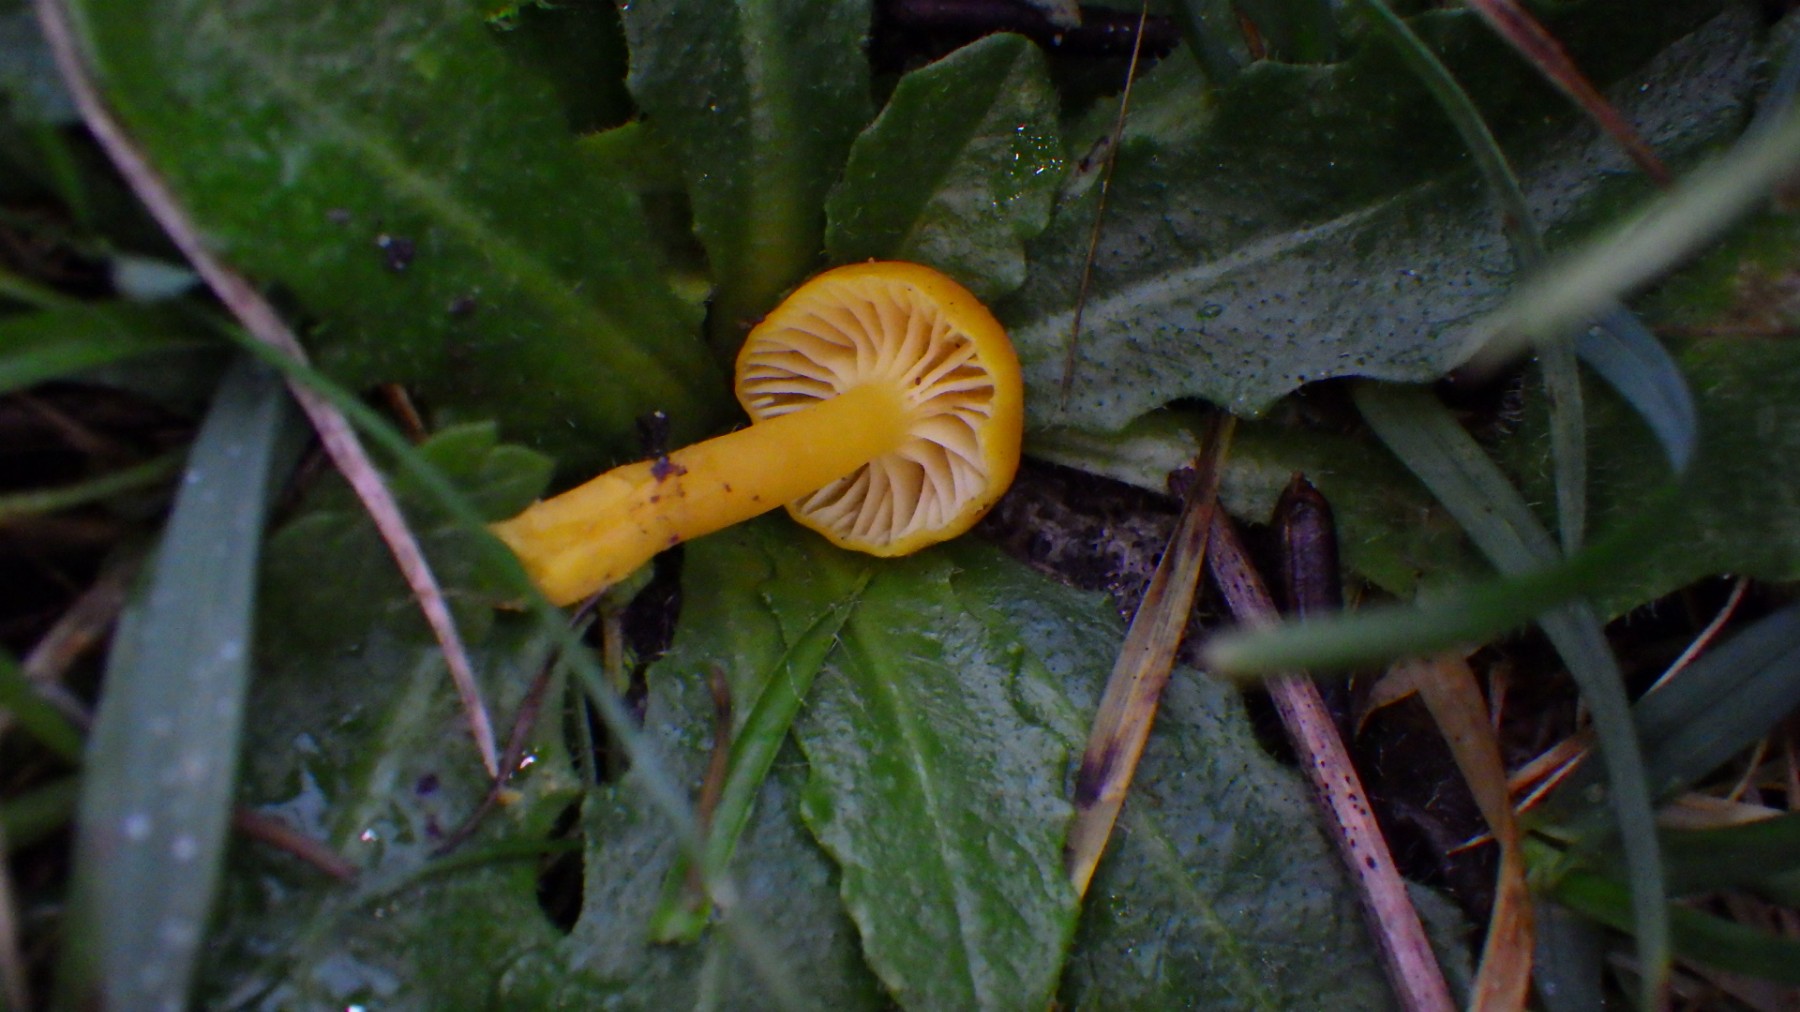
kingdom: Fungi
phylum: Basidiomycota
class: Agaricomycetes
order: Agaricales
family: Hygrophoraceae
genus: Hygrocybe
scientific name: Hygrocybe ceracea
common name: voksgul vokshat
